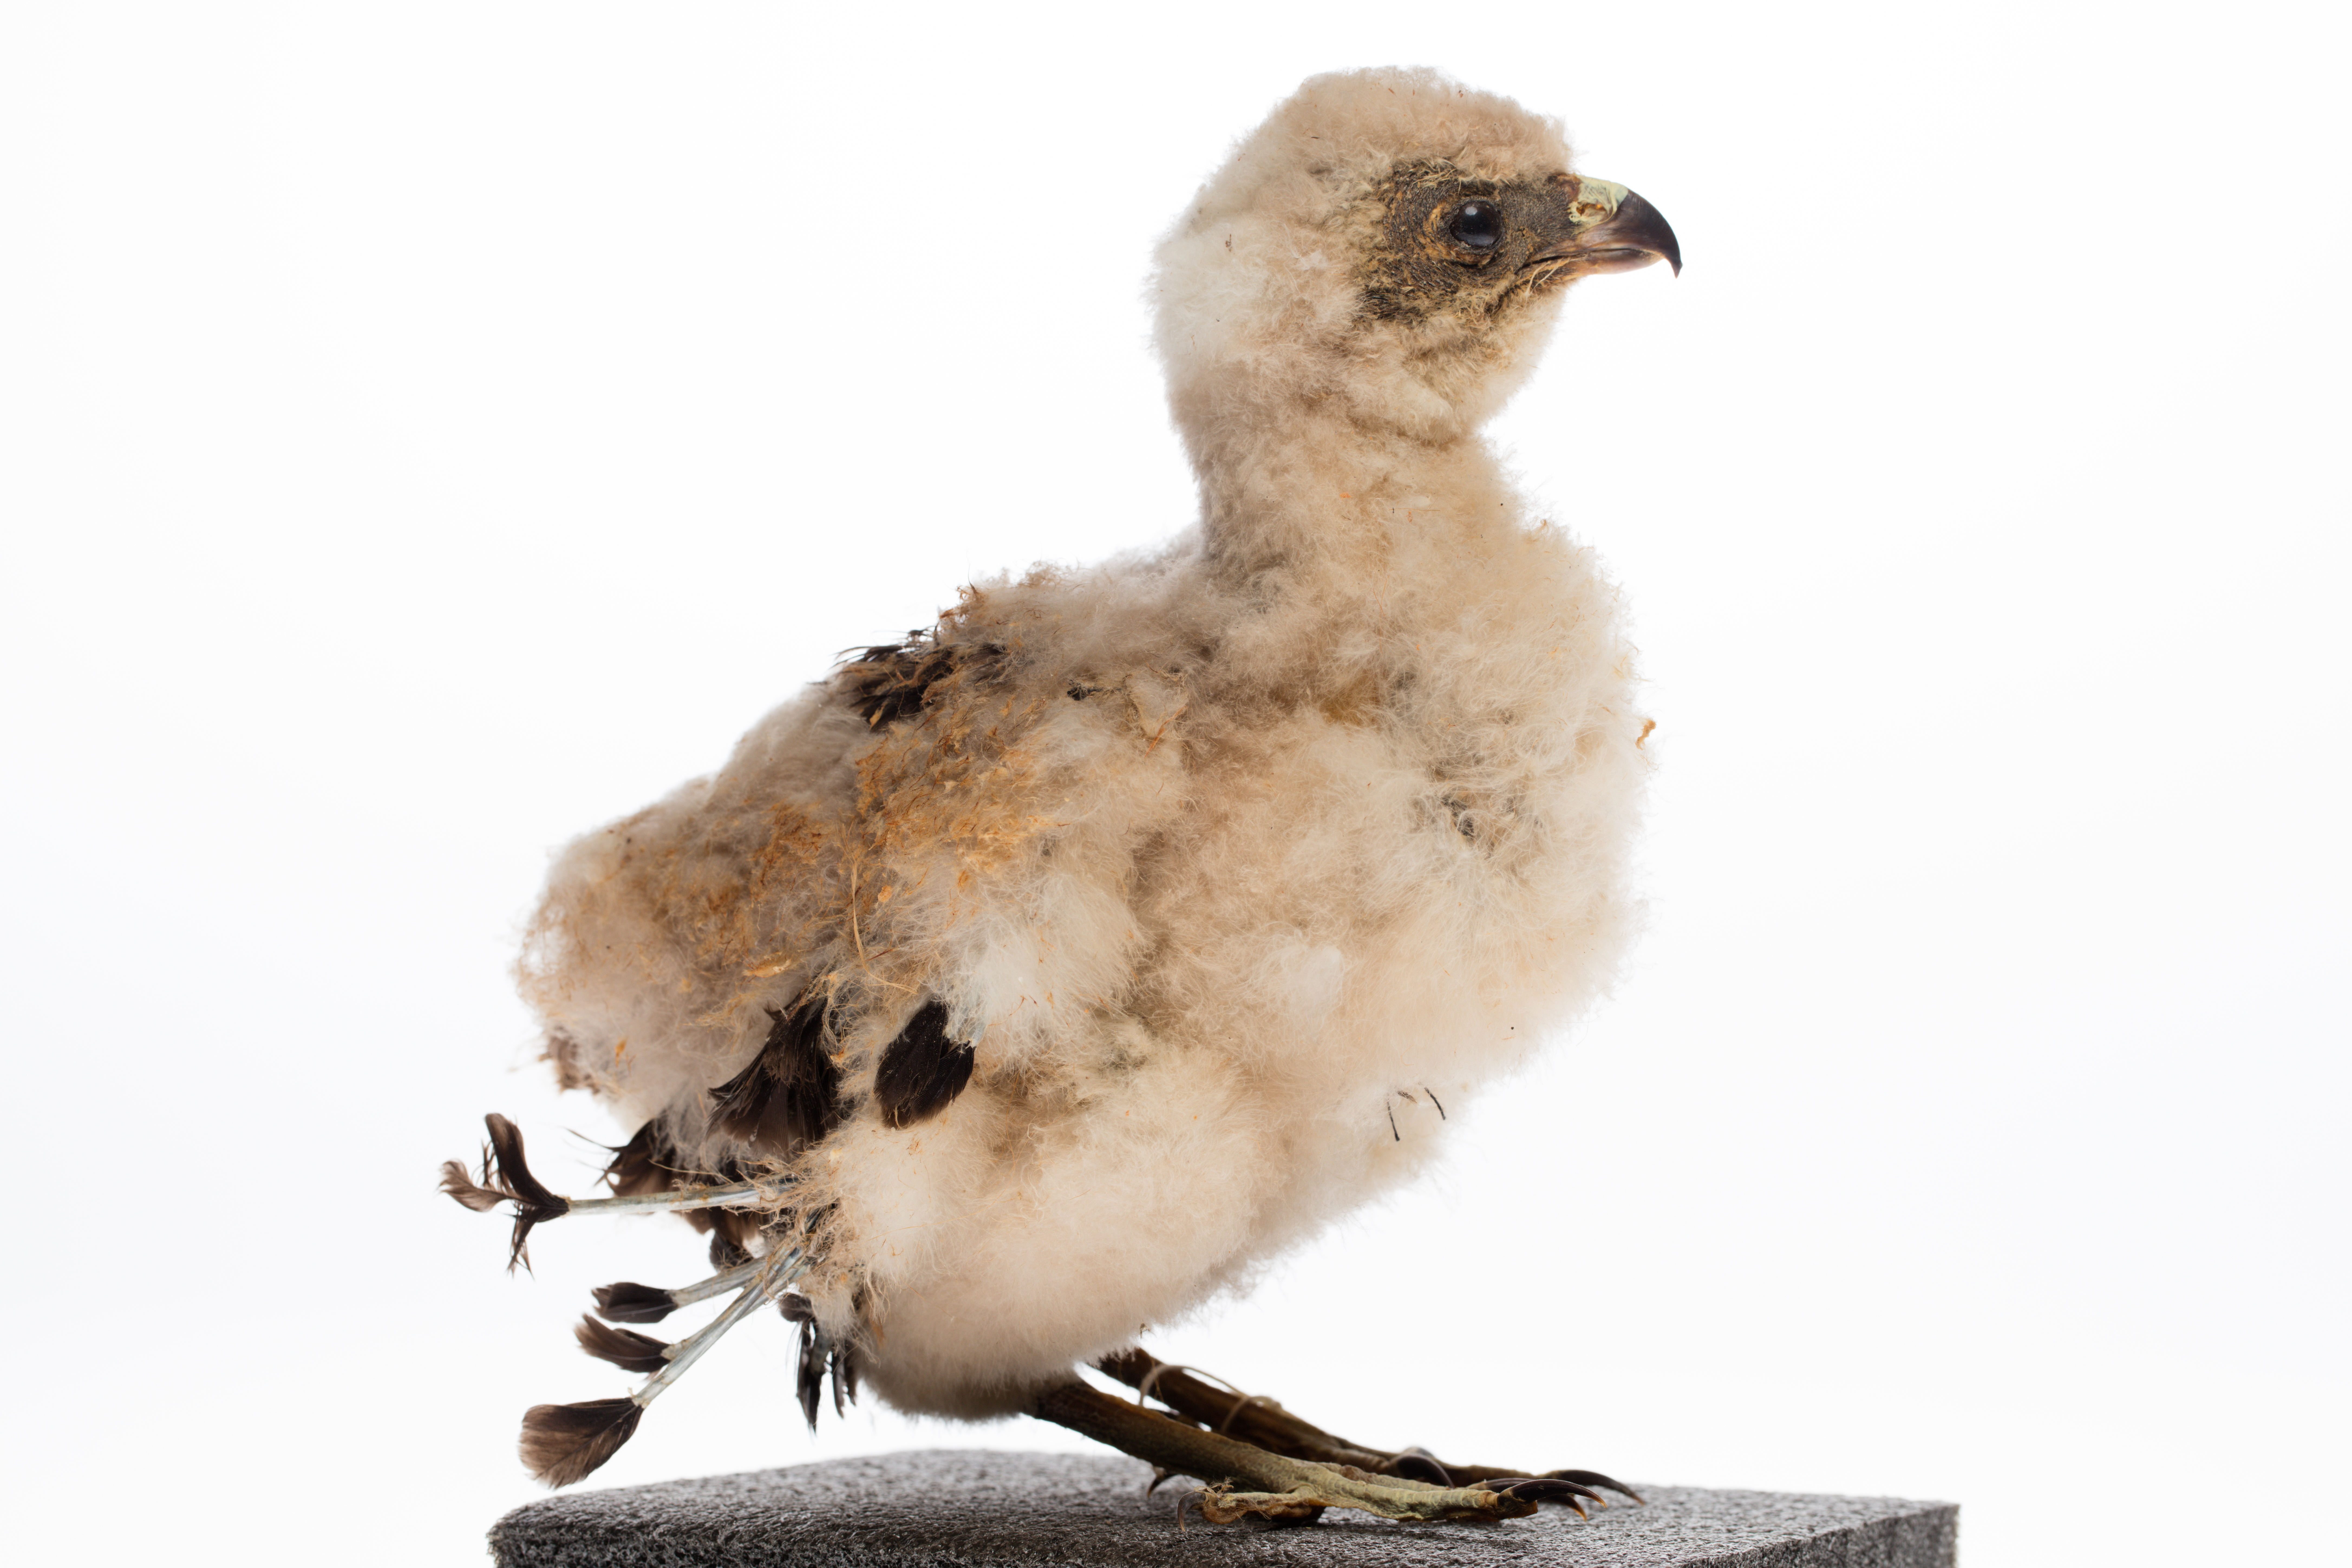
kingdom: Animalia
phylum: Chordata
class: Aves
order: Accipitriformes
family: Accipitridae
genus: Circus
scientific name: Circus approximans
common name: Swamp harrier
